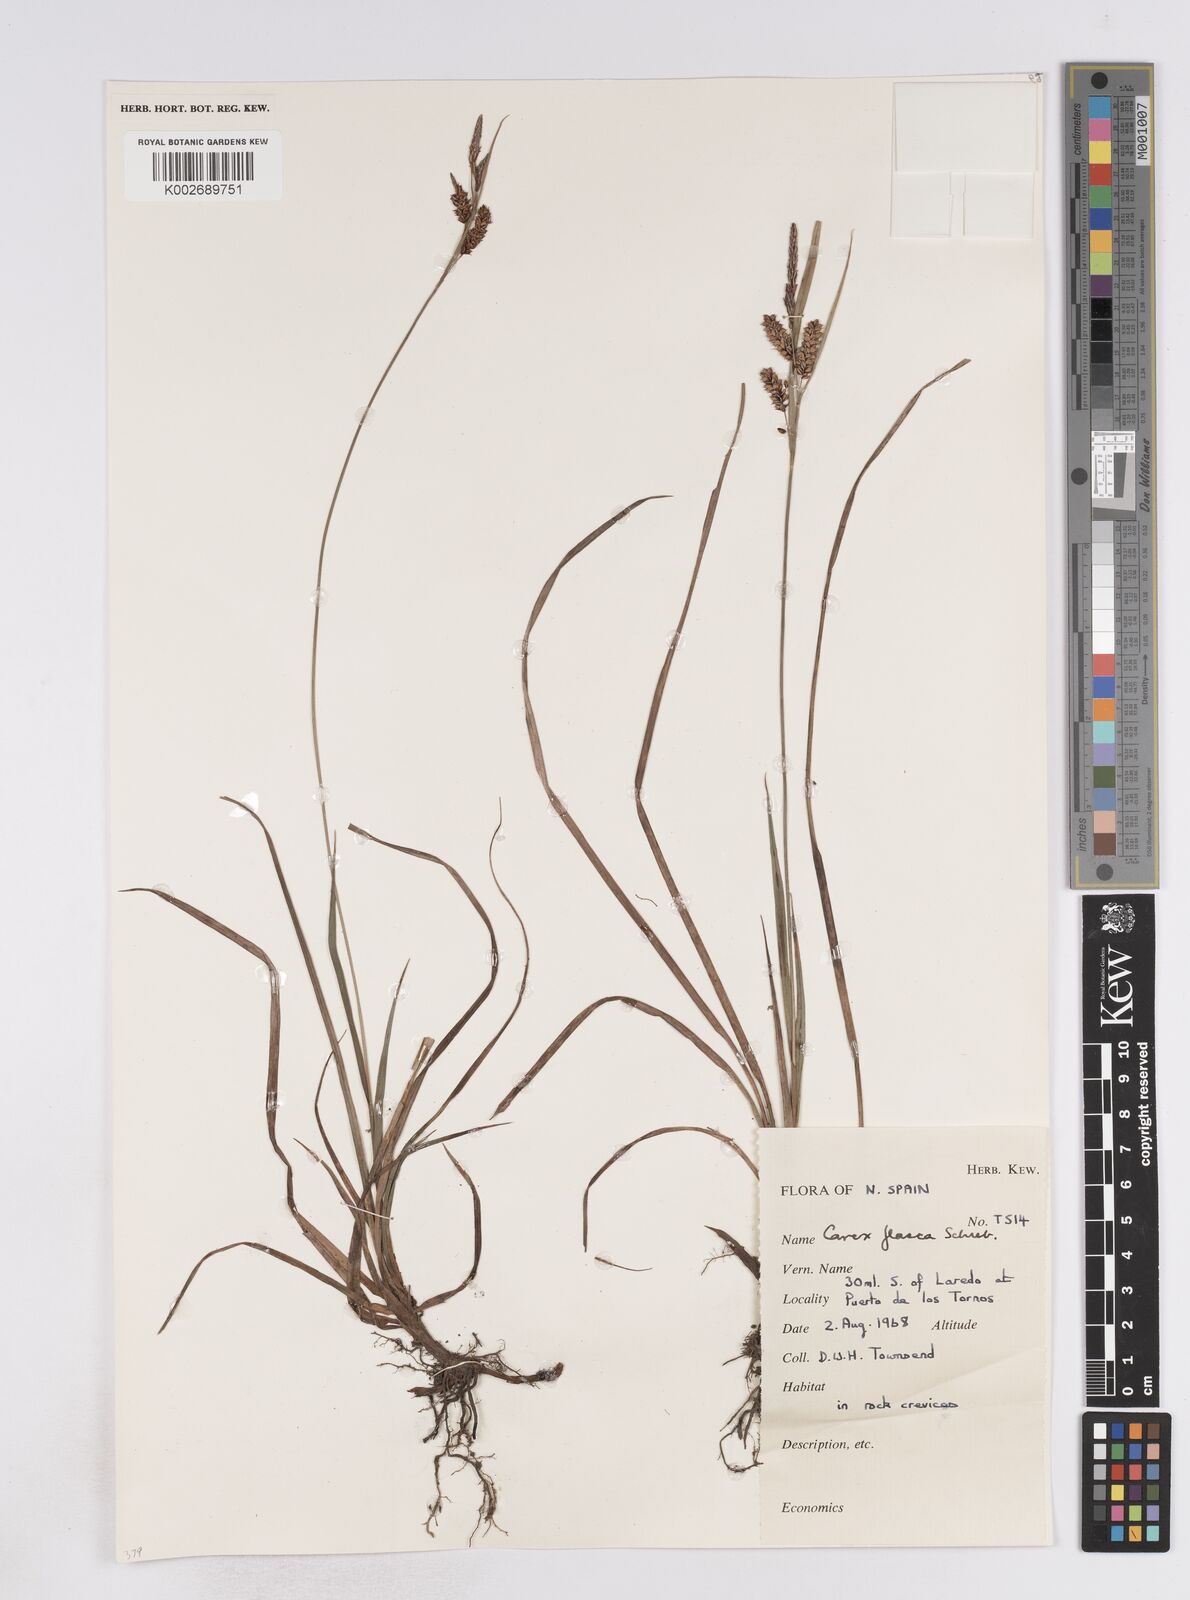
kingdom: Plantae
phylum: Tracheophyta
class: Liliopsida
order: Poales
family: Cyperaceae
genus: Carex
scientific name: Carex flacca
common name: Glaucous sedge
